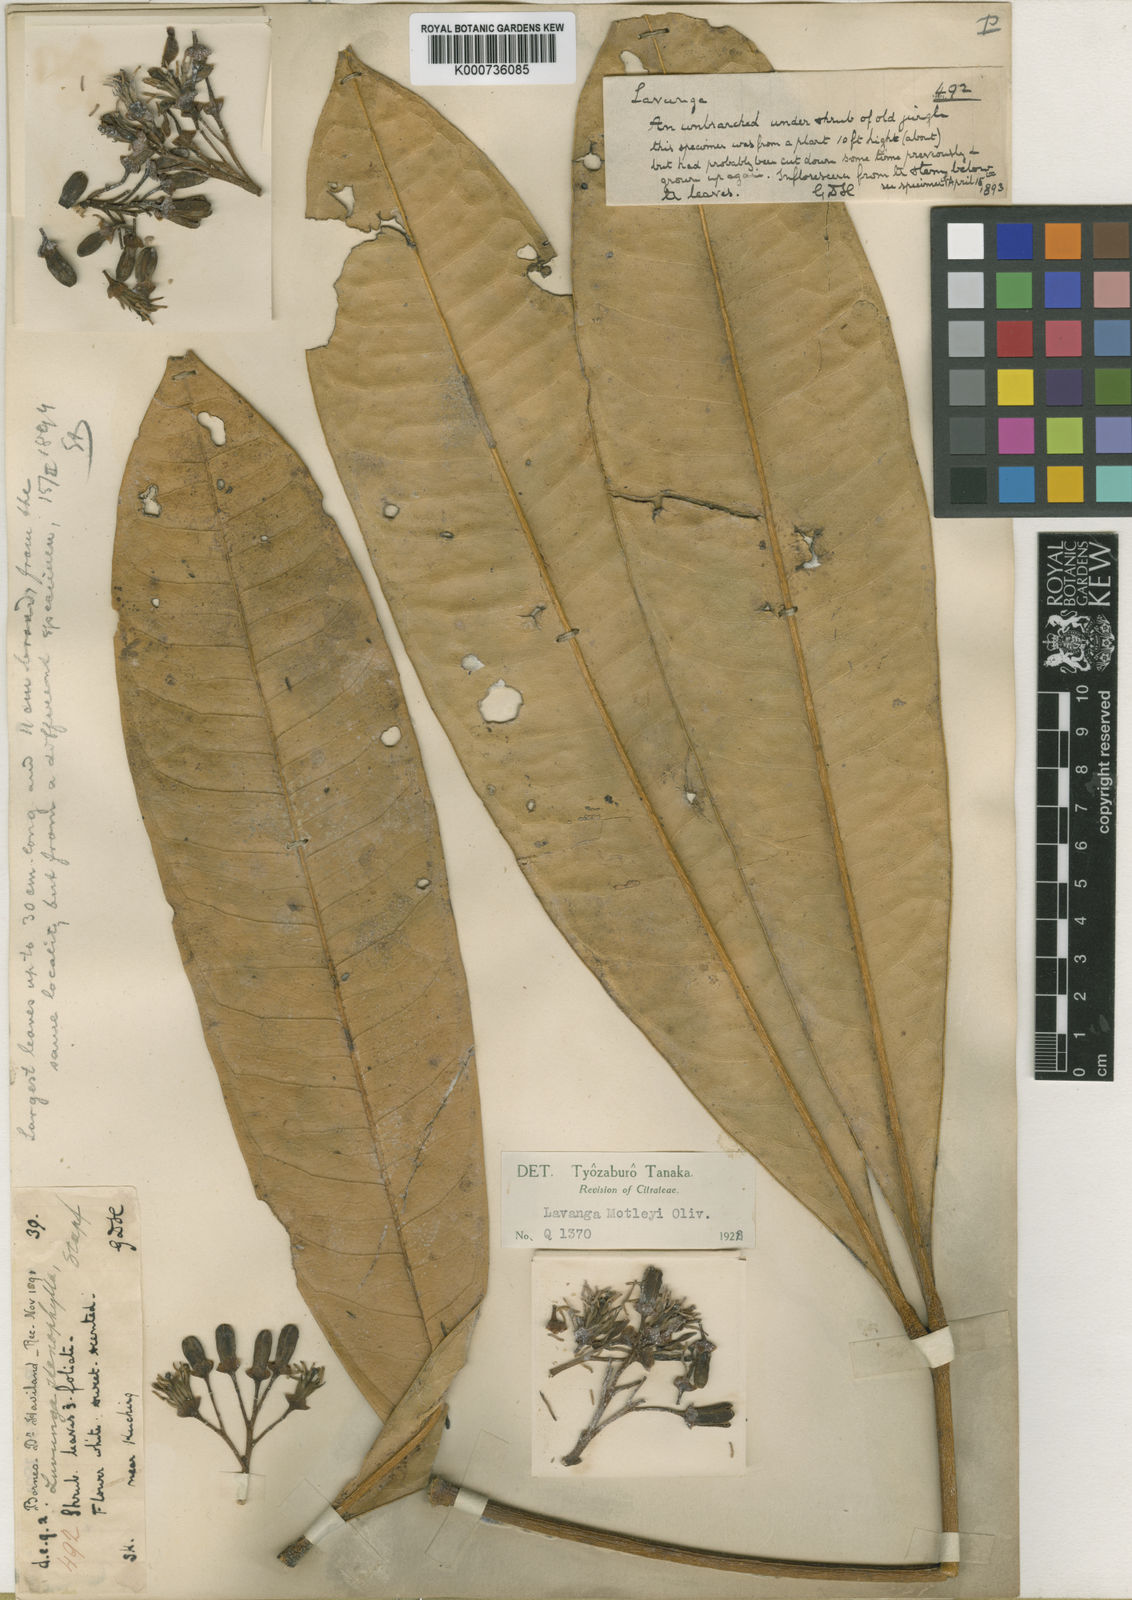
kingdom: Plantae
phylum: Tracheophyta
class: Magnoliopsida
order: Sapindales
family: Rutaceae
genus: Luvunga
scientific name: Luvunga scandens
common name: Indian luvunga
